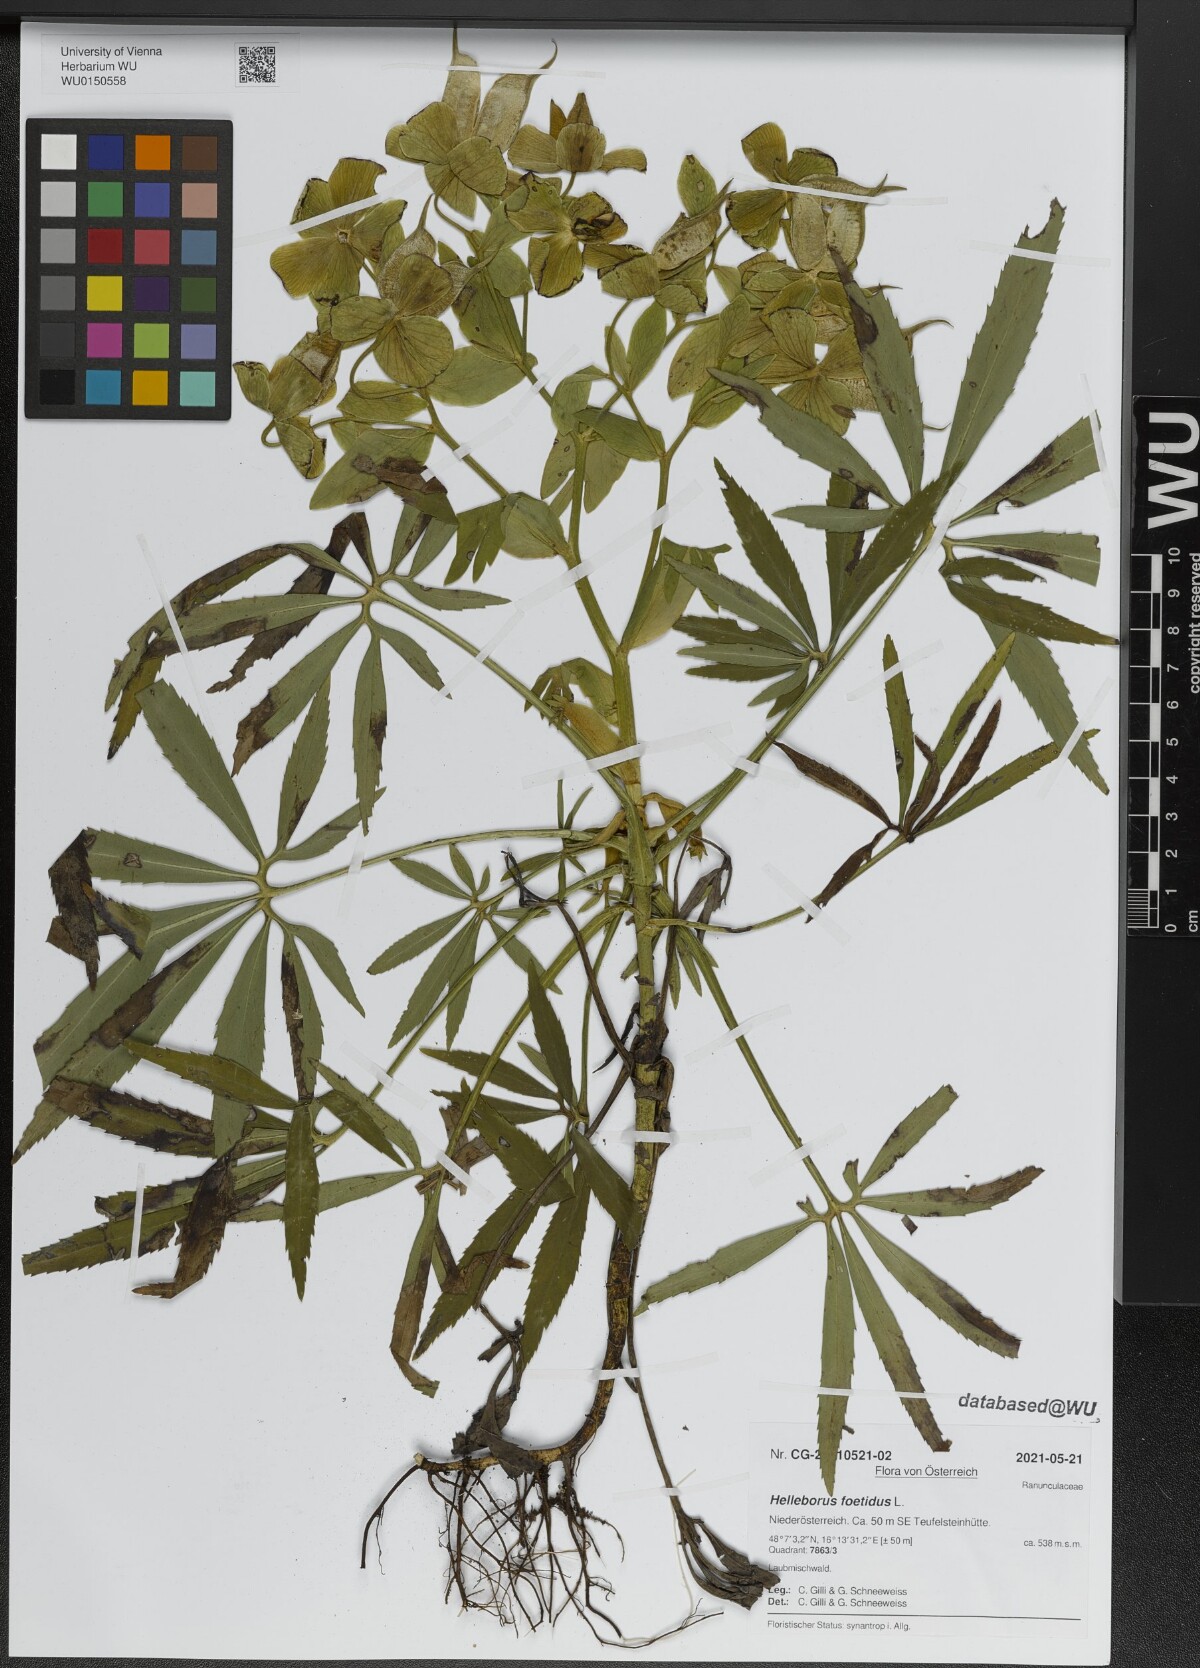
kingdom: Plantae
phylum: Tracheophyta
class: Magnoliopsida
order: Ranunculales
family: Ranunculaceae
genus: Helleborus
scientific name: Helleborus foetidus
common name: Stinking hellebore
